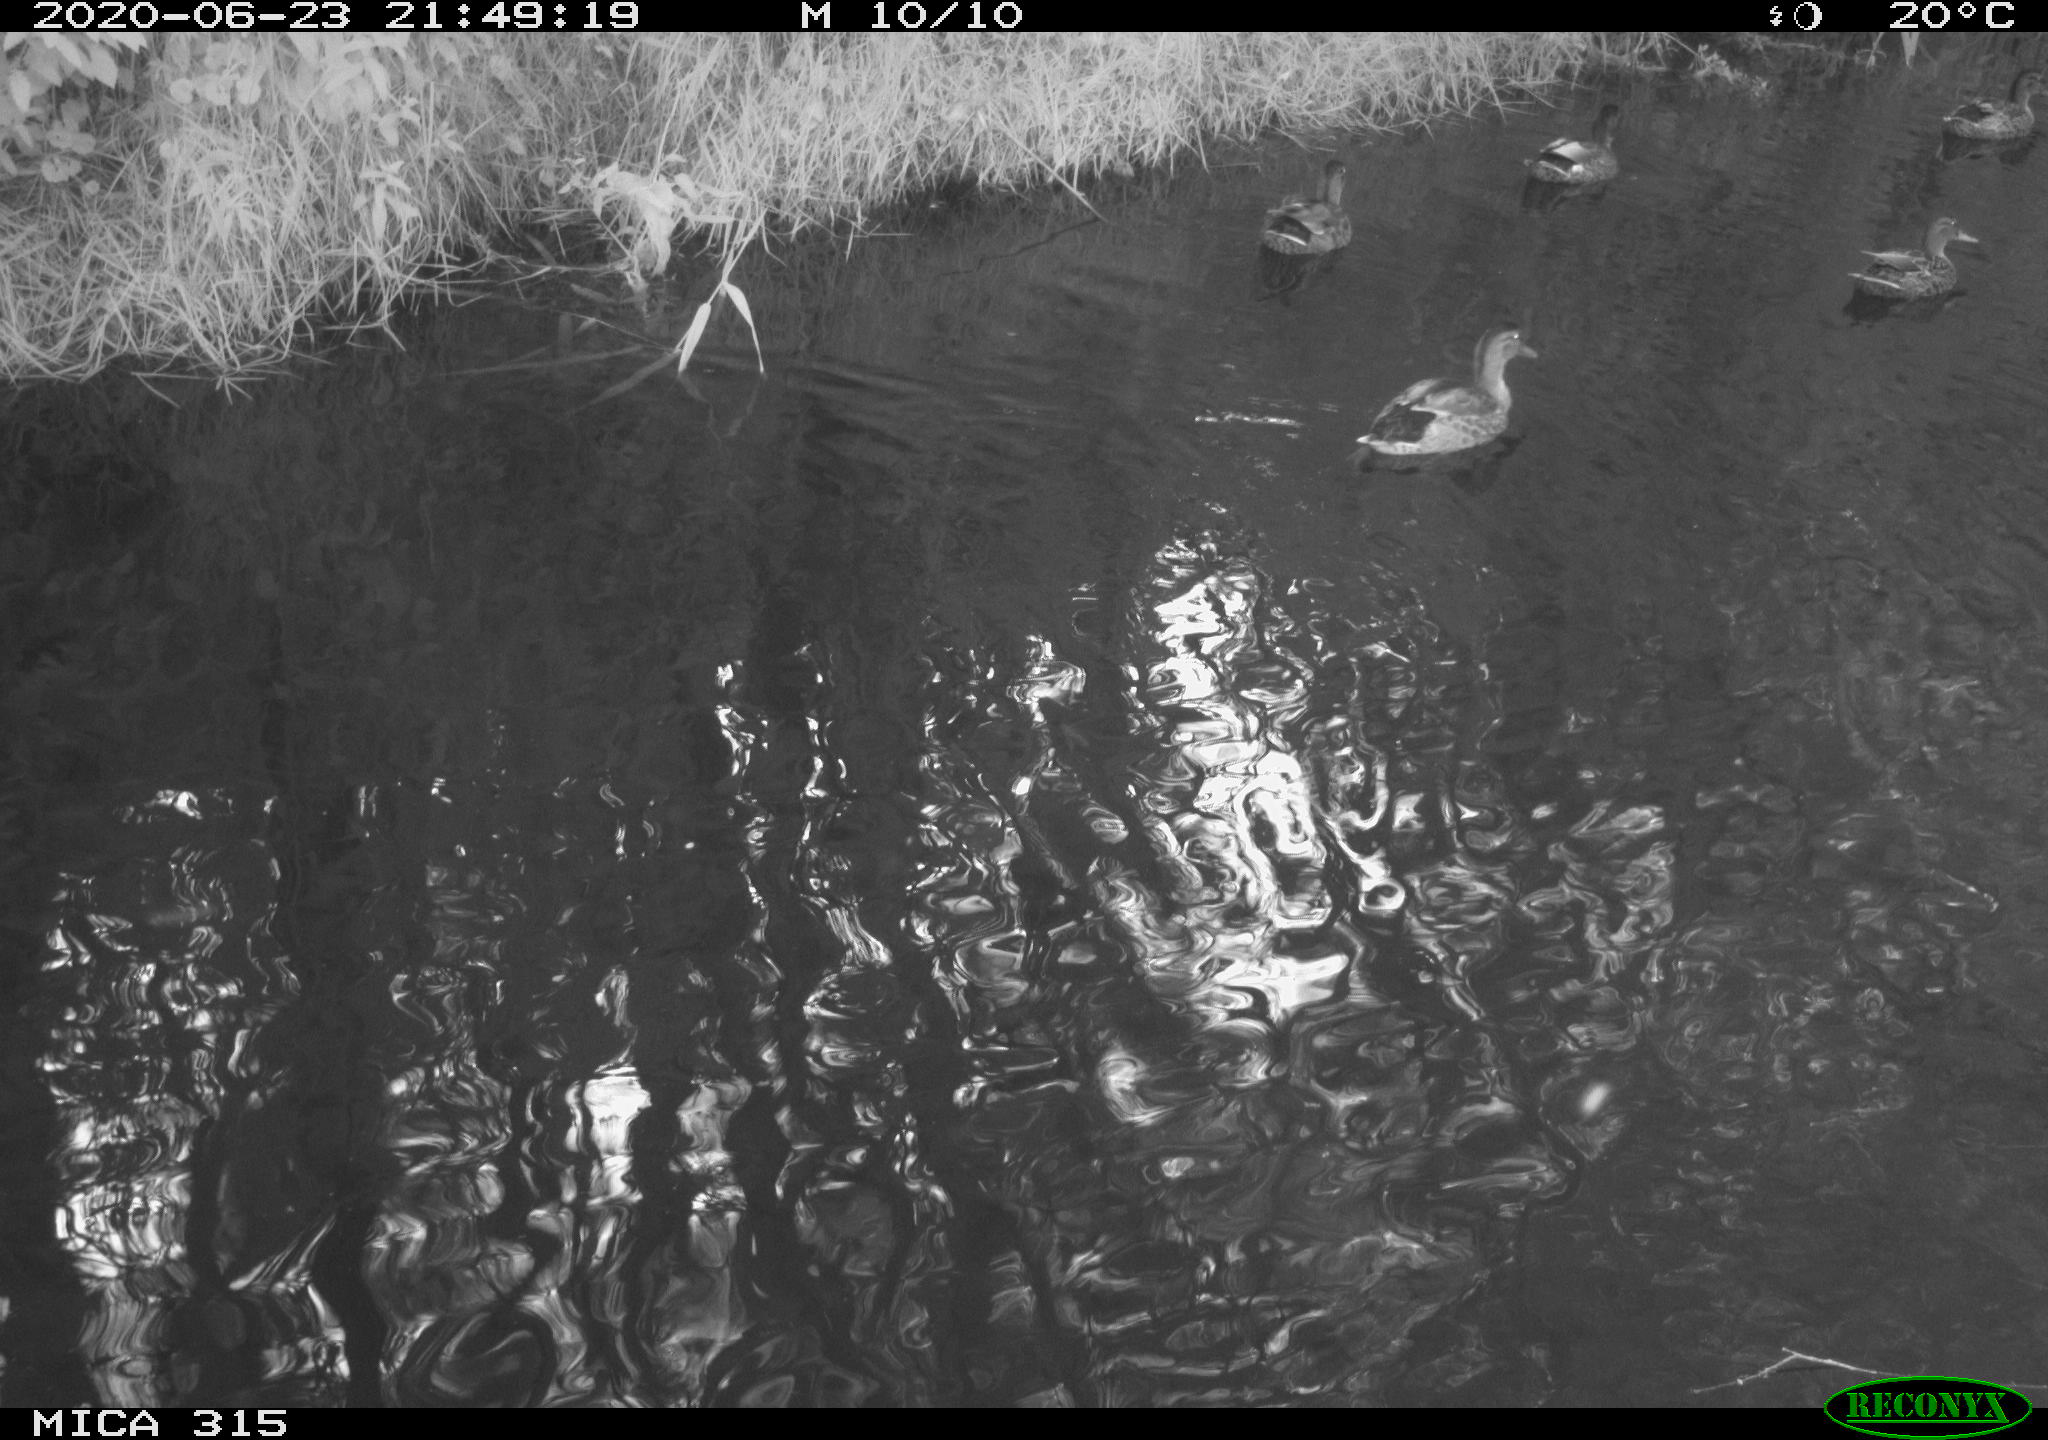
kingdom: Animalia
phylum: Chordata
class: Aves
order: Anseriformes
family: Anatidae
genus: Anas
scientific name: Anas platyrhynchos
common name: Mallard
